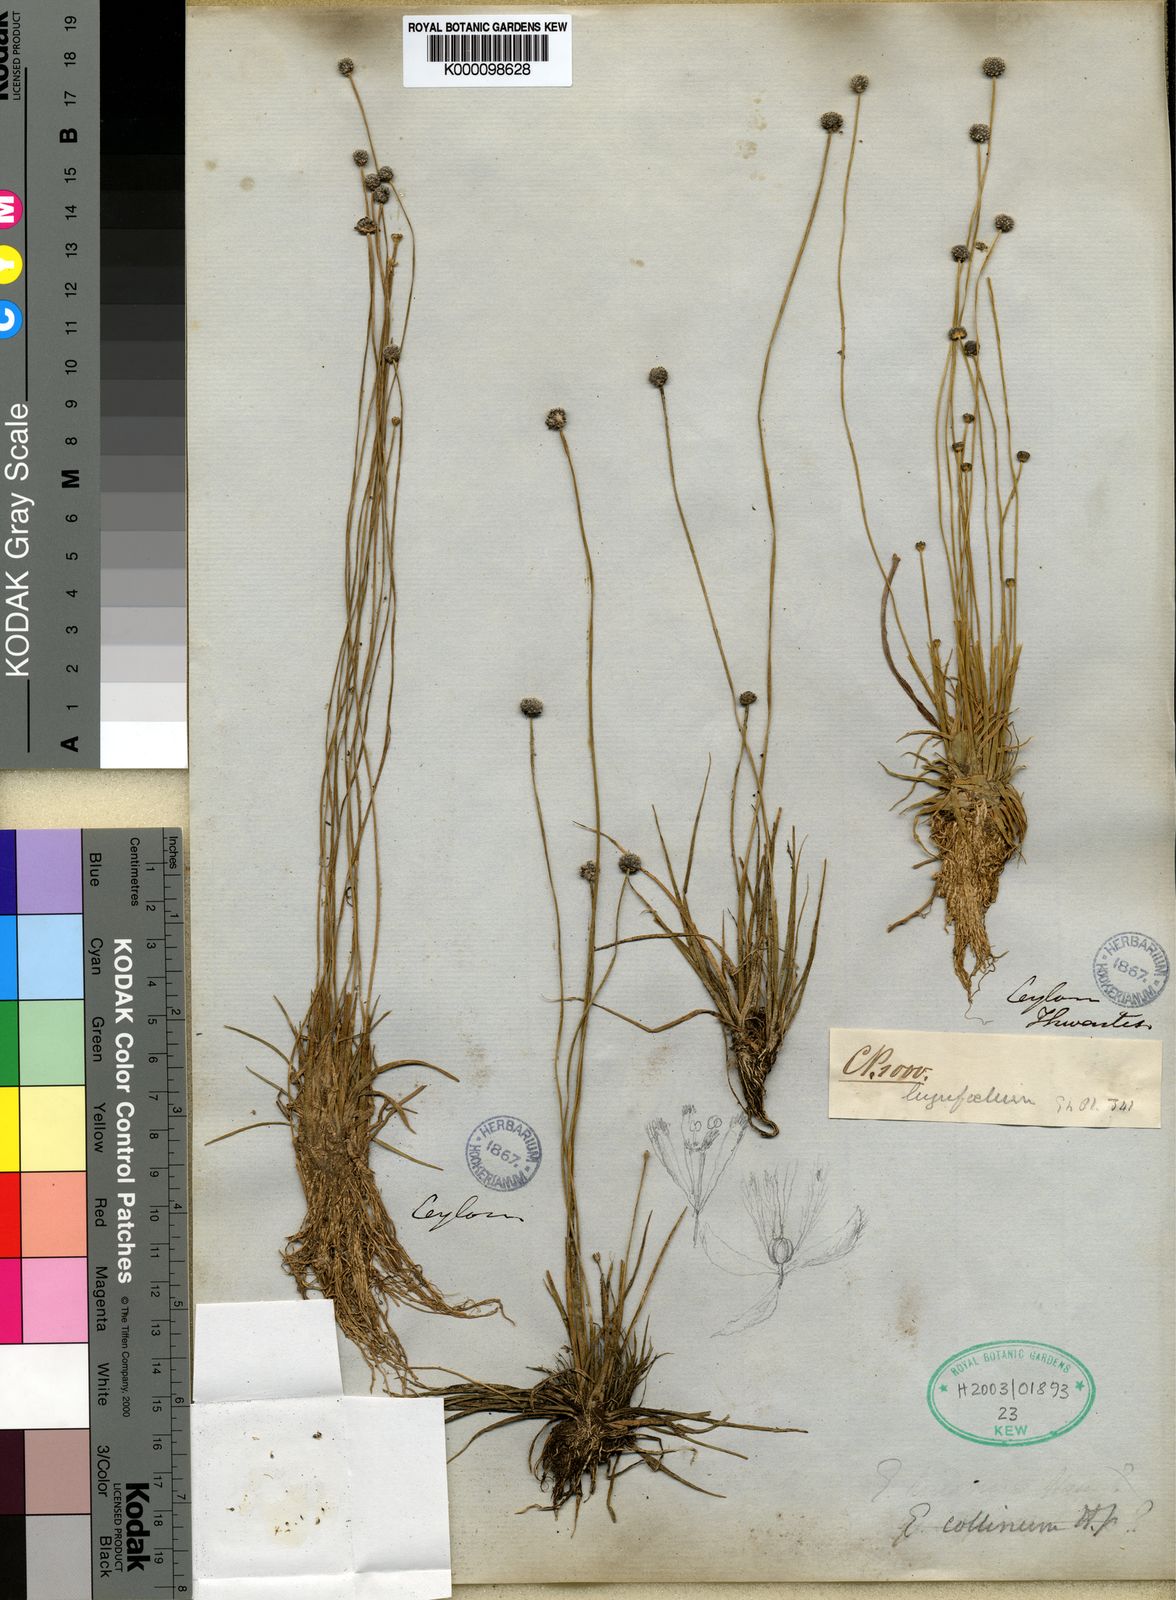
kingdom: Plantae
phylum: Tracheophyta
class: Liliopsida
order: Poales
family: Eriocaulaceae
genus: Eriocaulon
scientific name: Eriocaulon odoratum
